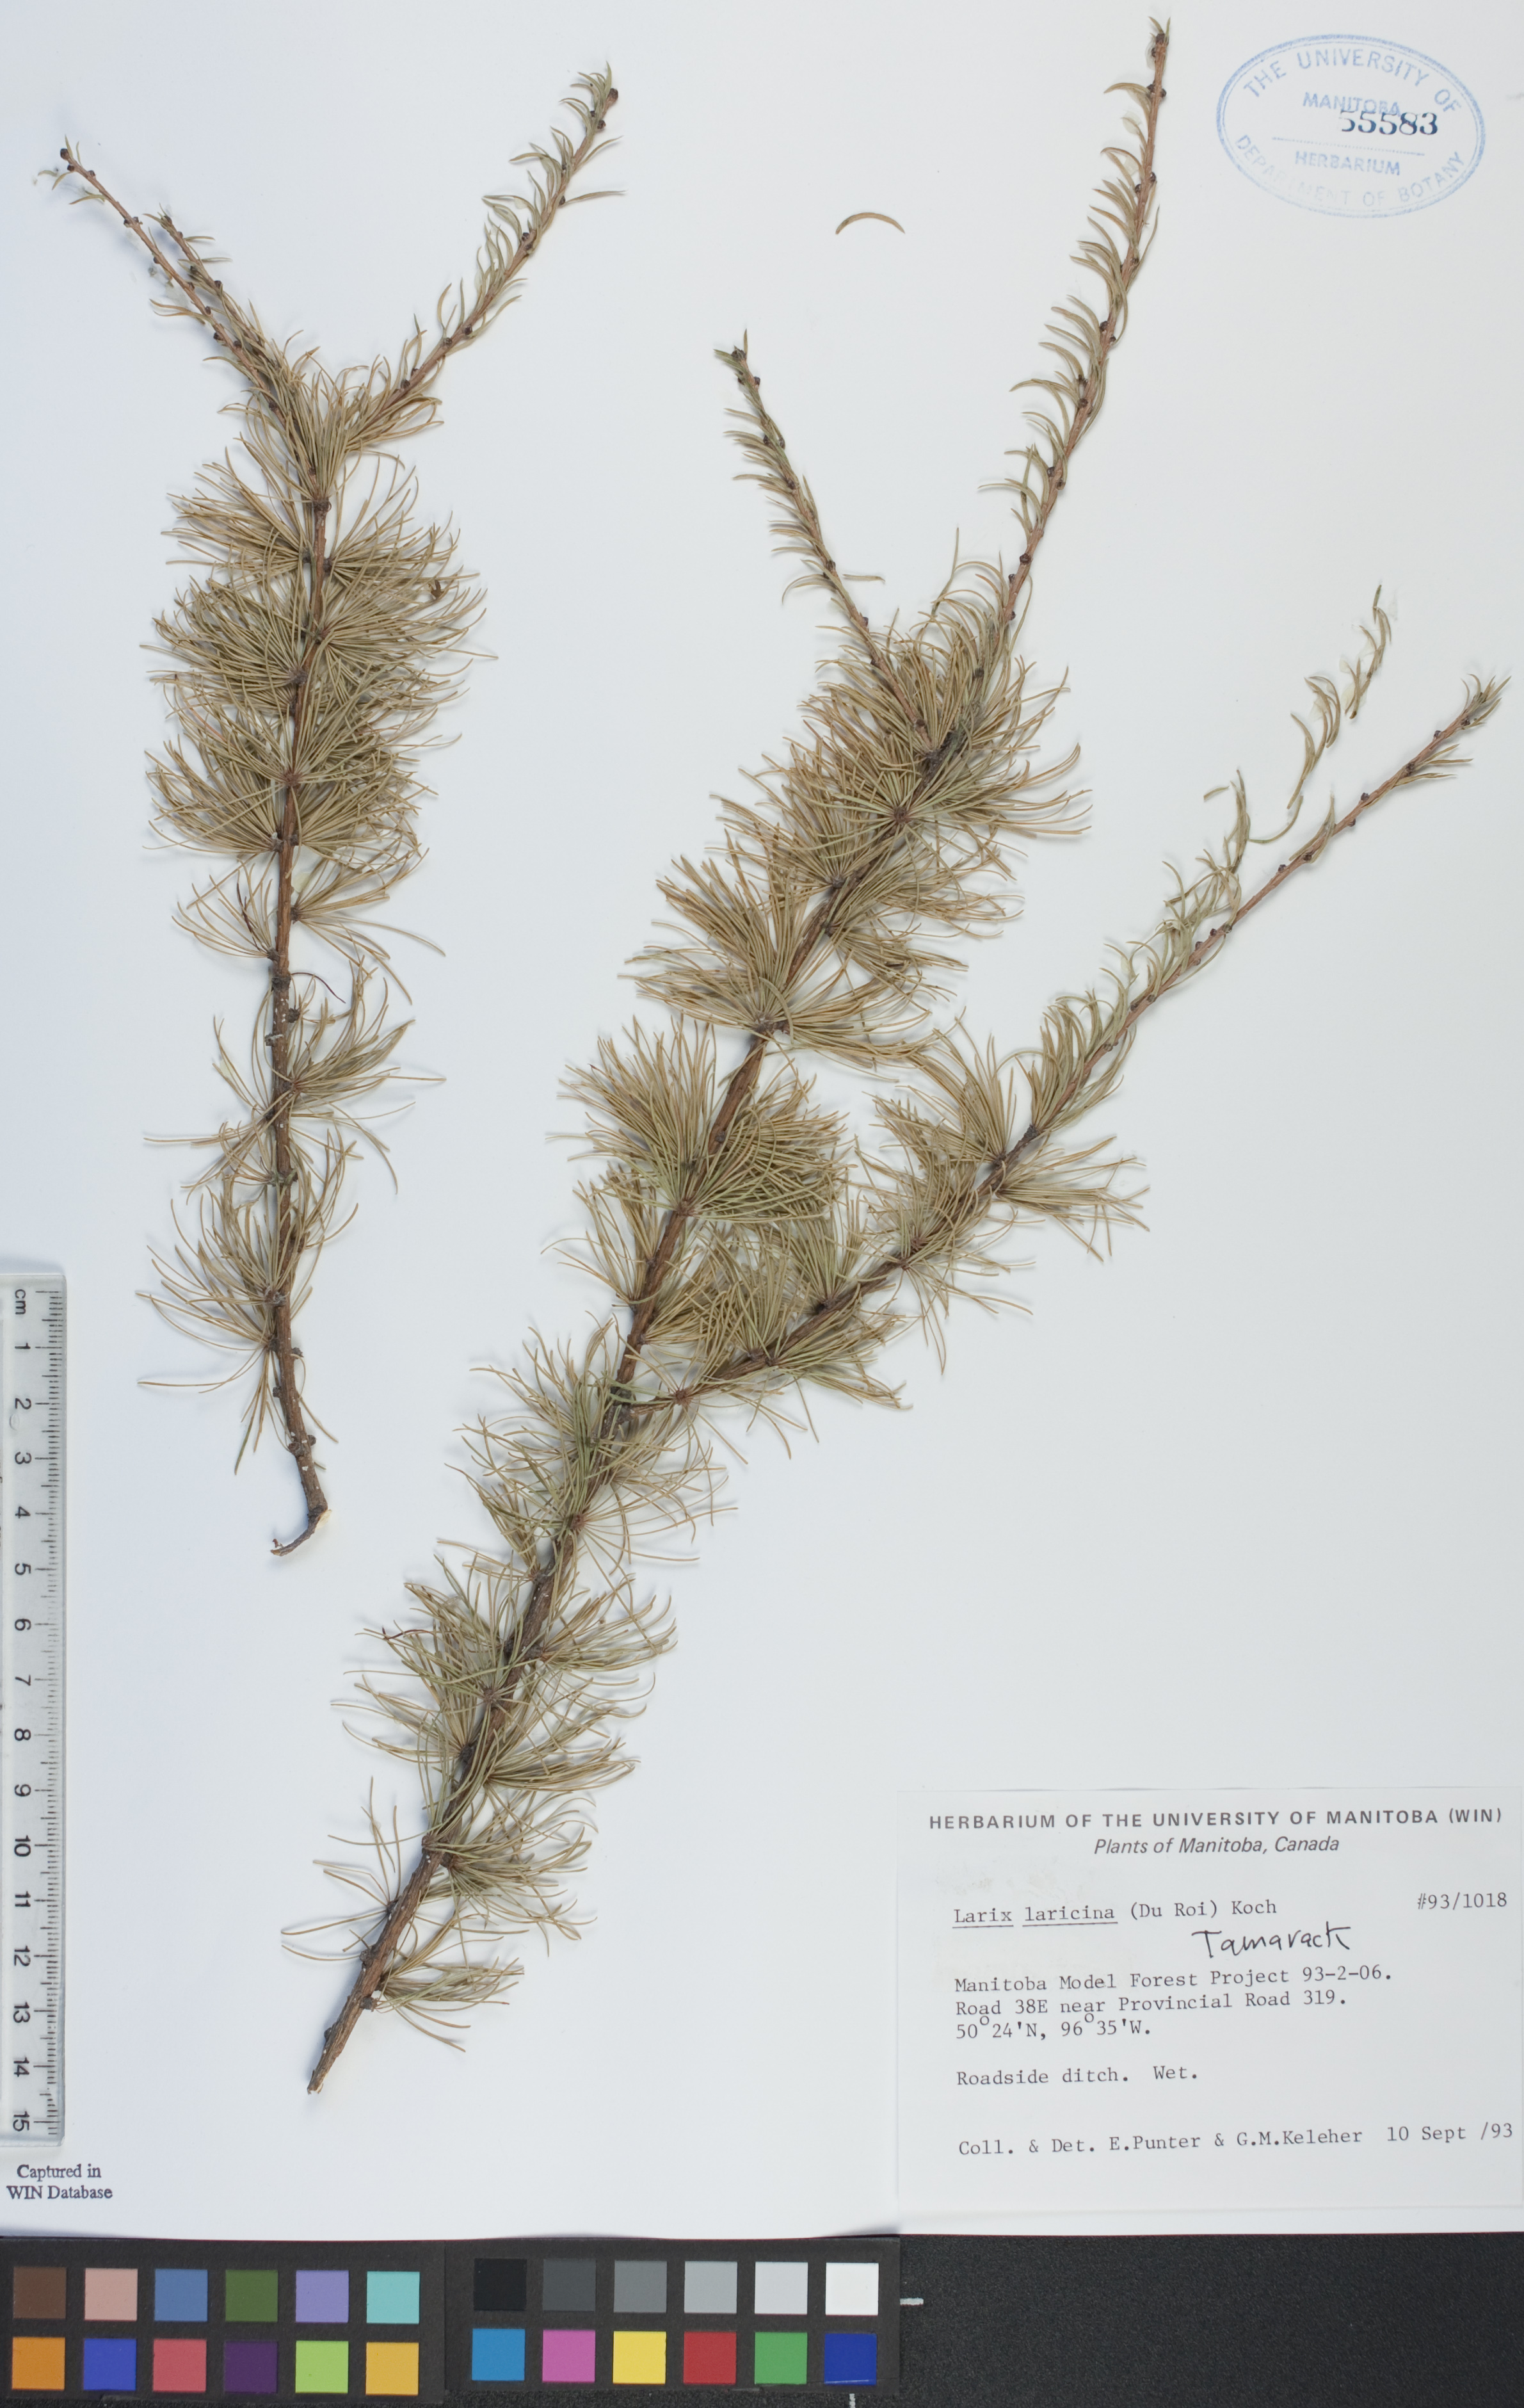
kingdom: Plantae
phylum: Tracheophyta
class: Pinopsida
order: Pinales
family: Pinaceae
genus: Larix
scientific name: Larix laricina
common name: American larch
